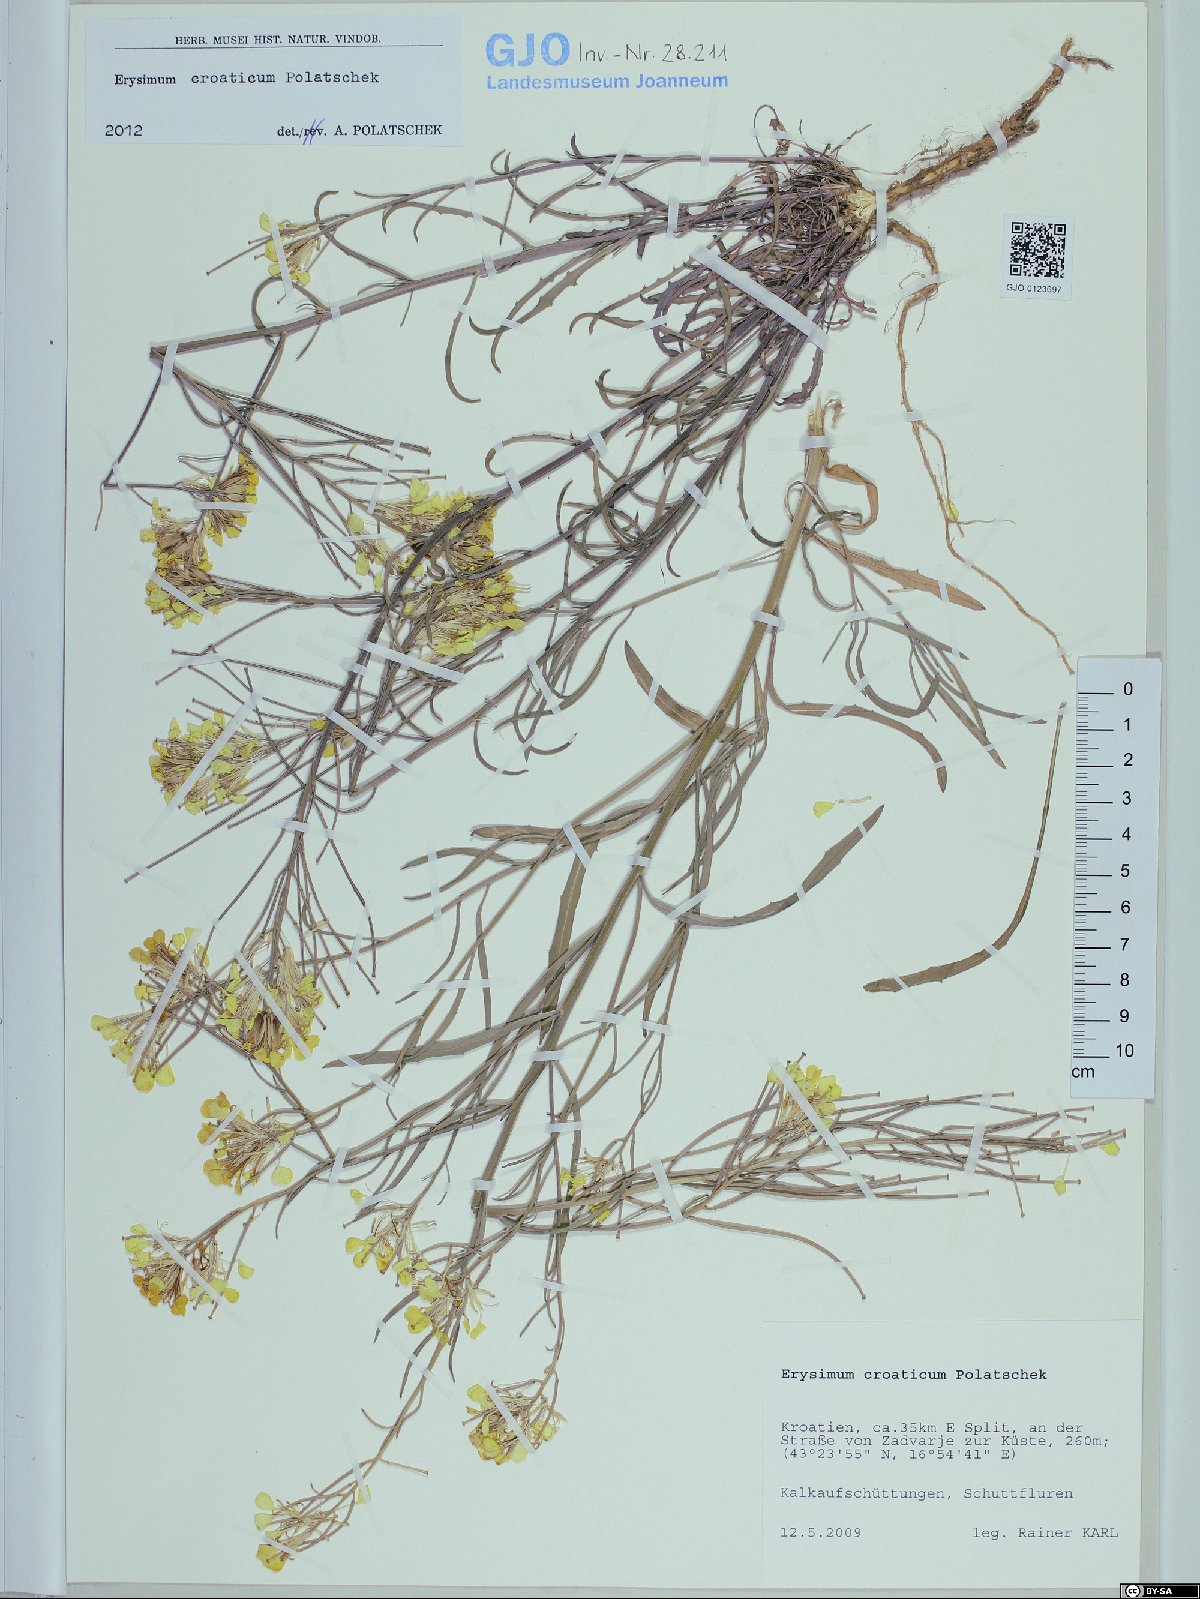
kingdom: Plantae
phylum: Tracheophyta
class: Magnoliopsida
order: Brassicales
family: Brassicaceae
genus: Erysimum
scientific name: Erysimum croaticum
